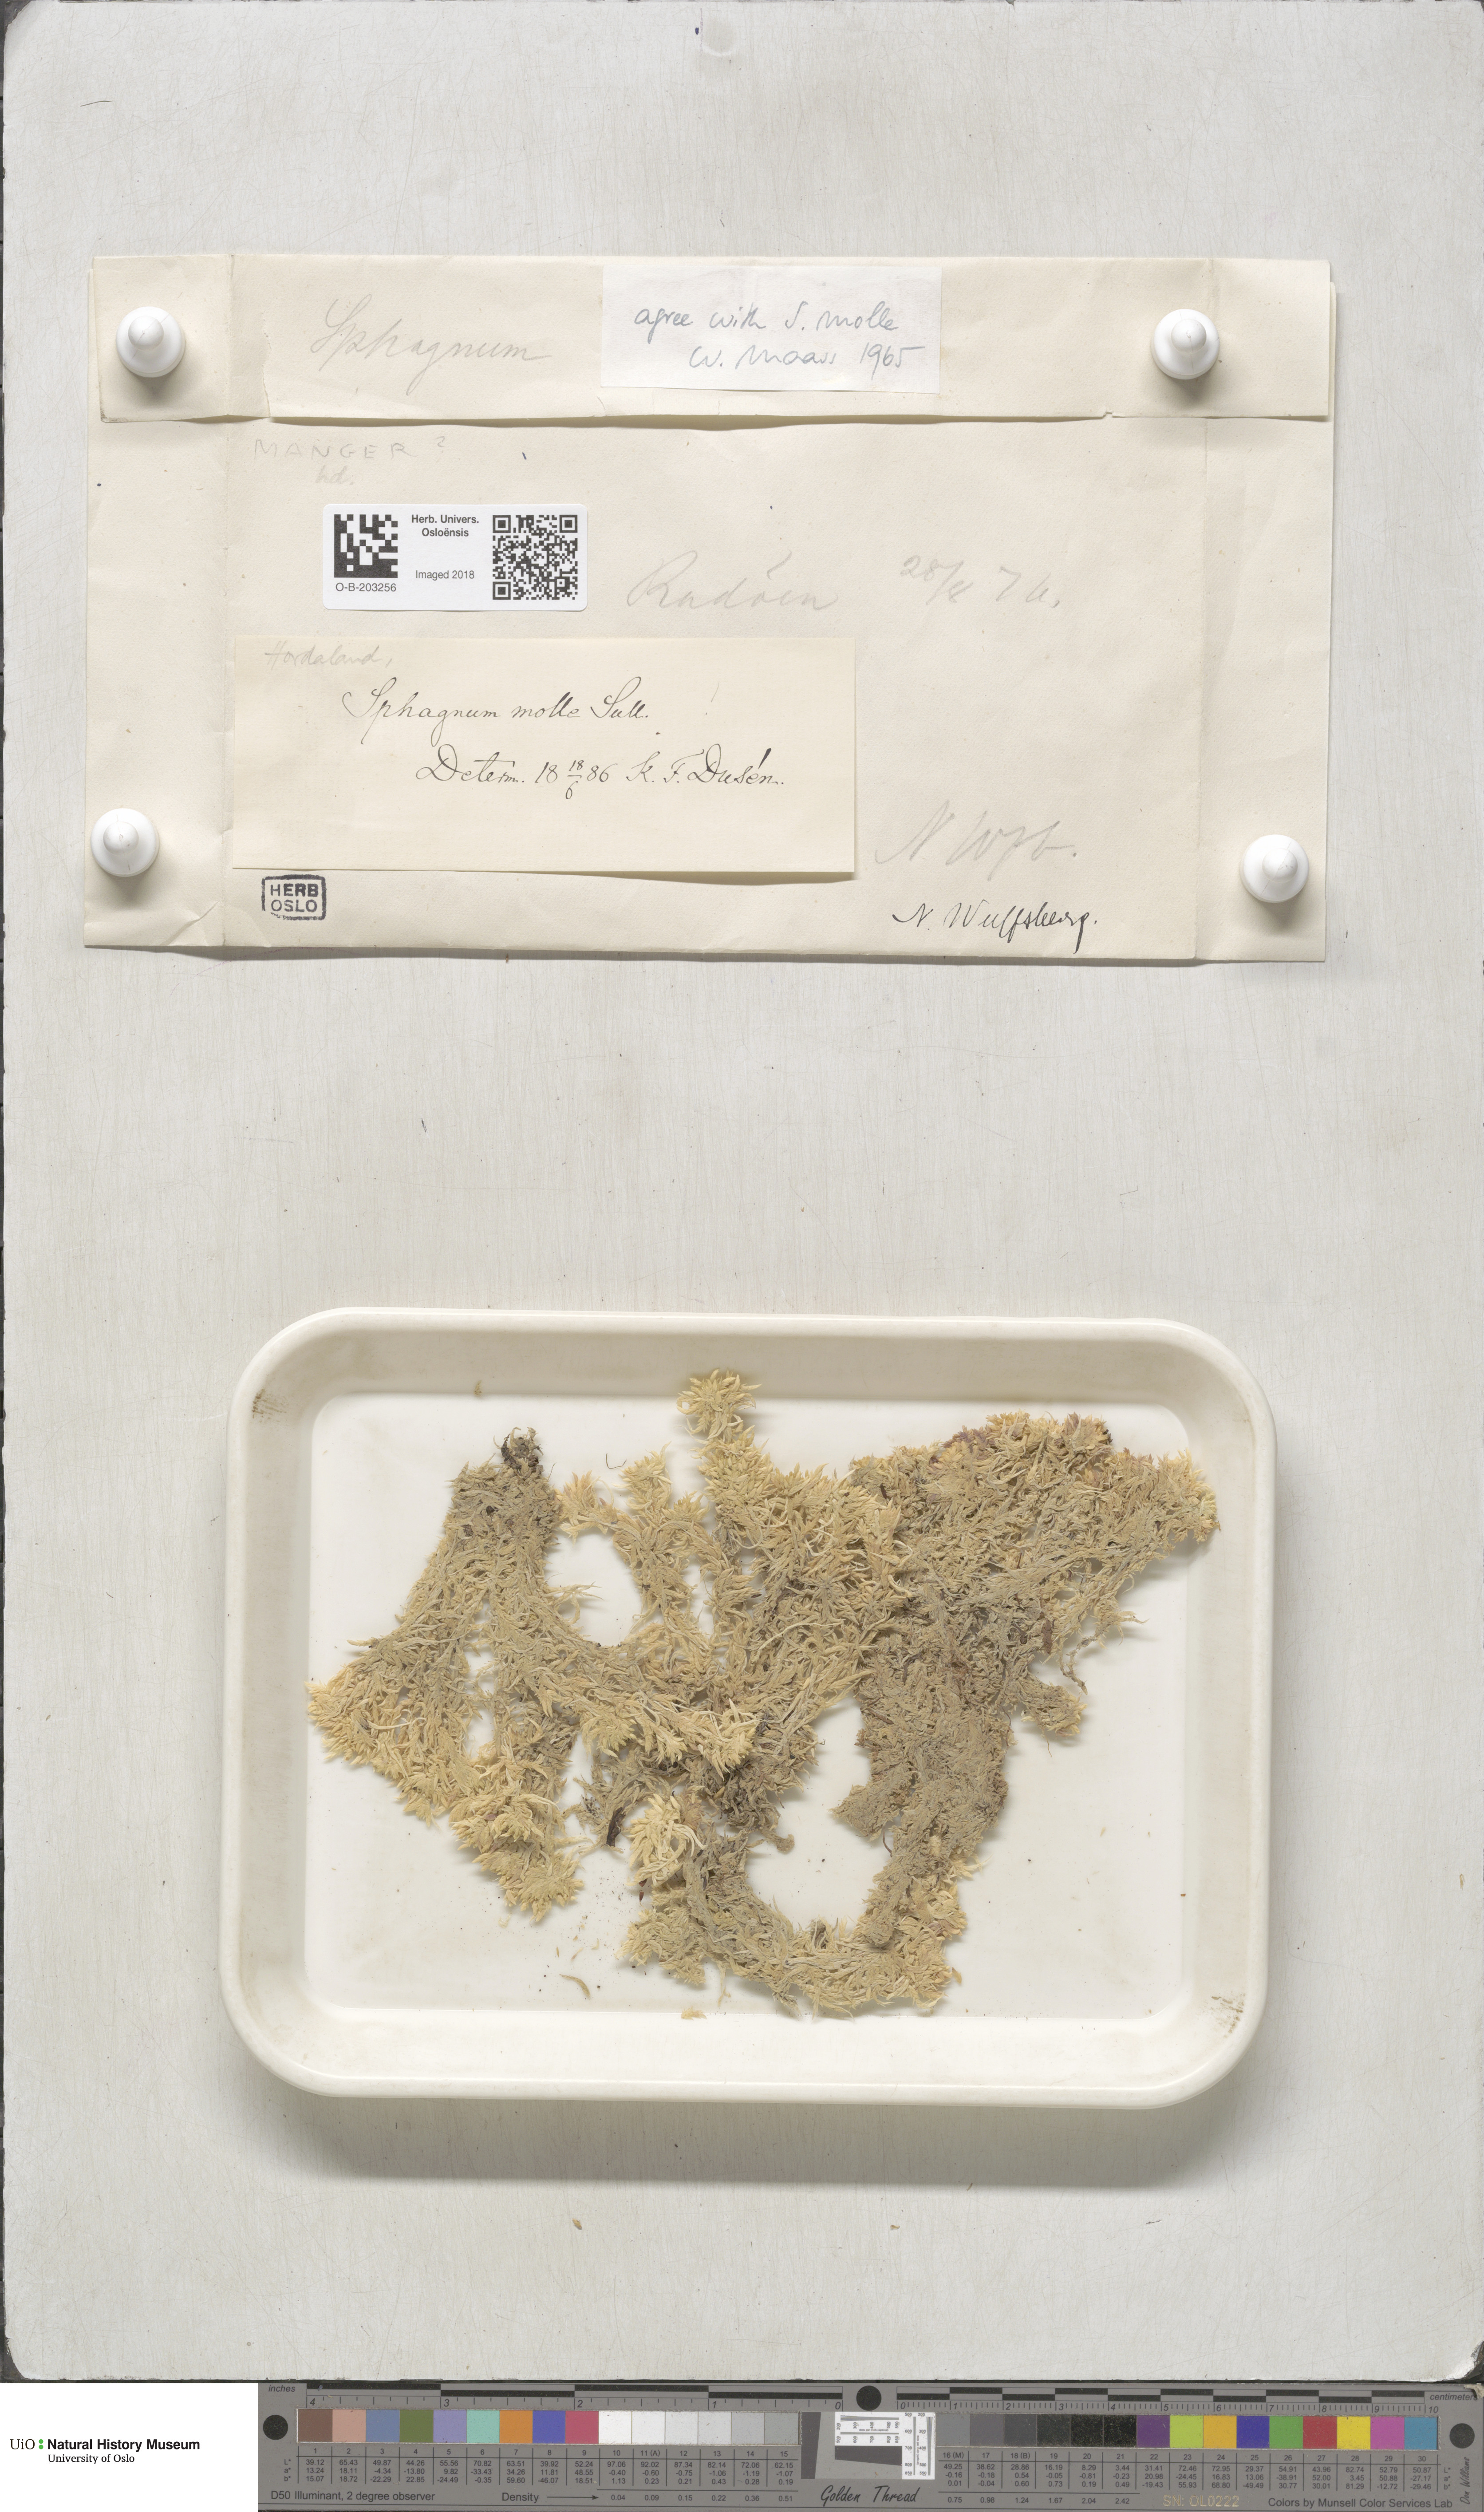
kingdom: Plantae
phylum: Bryophyta
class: Sphagnopsida
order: Sphagnales
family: Sphagnaceae
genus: Sphagnum
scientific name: Sphagnum molle
